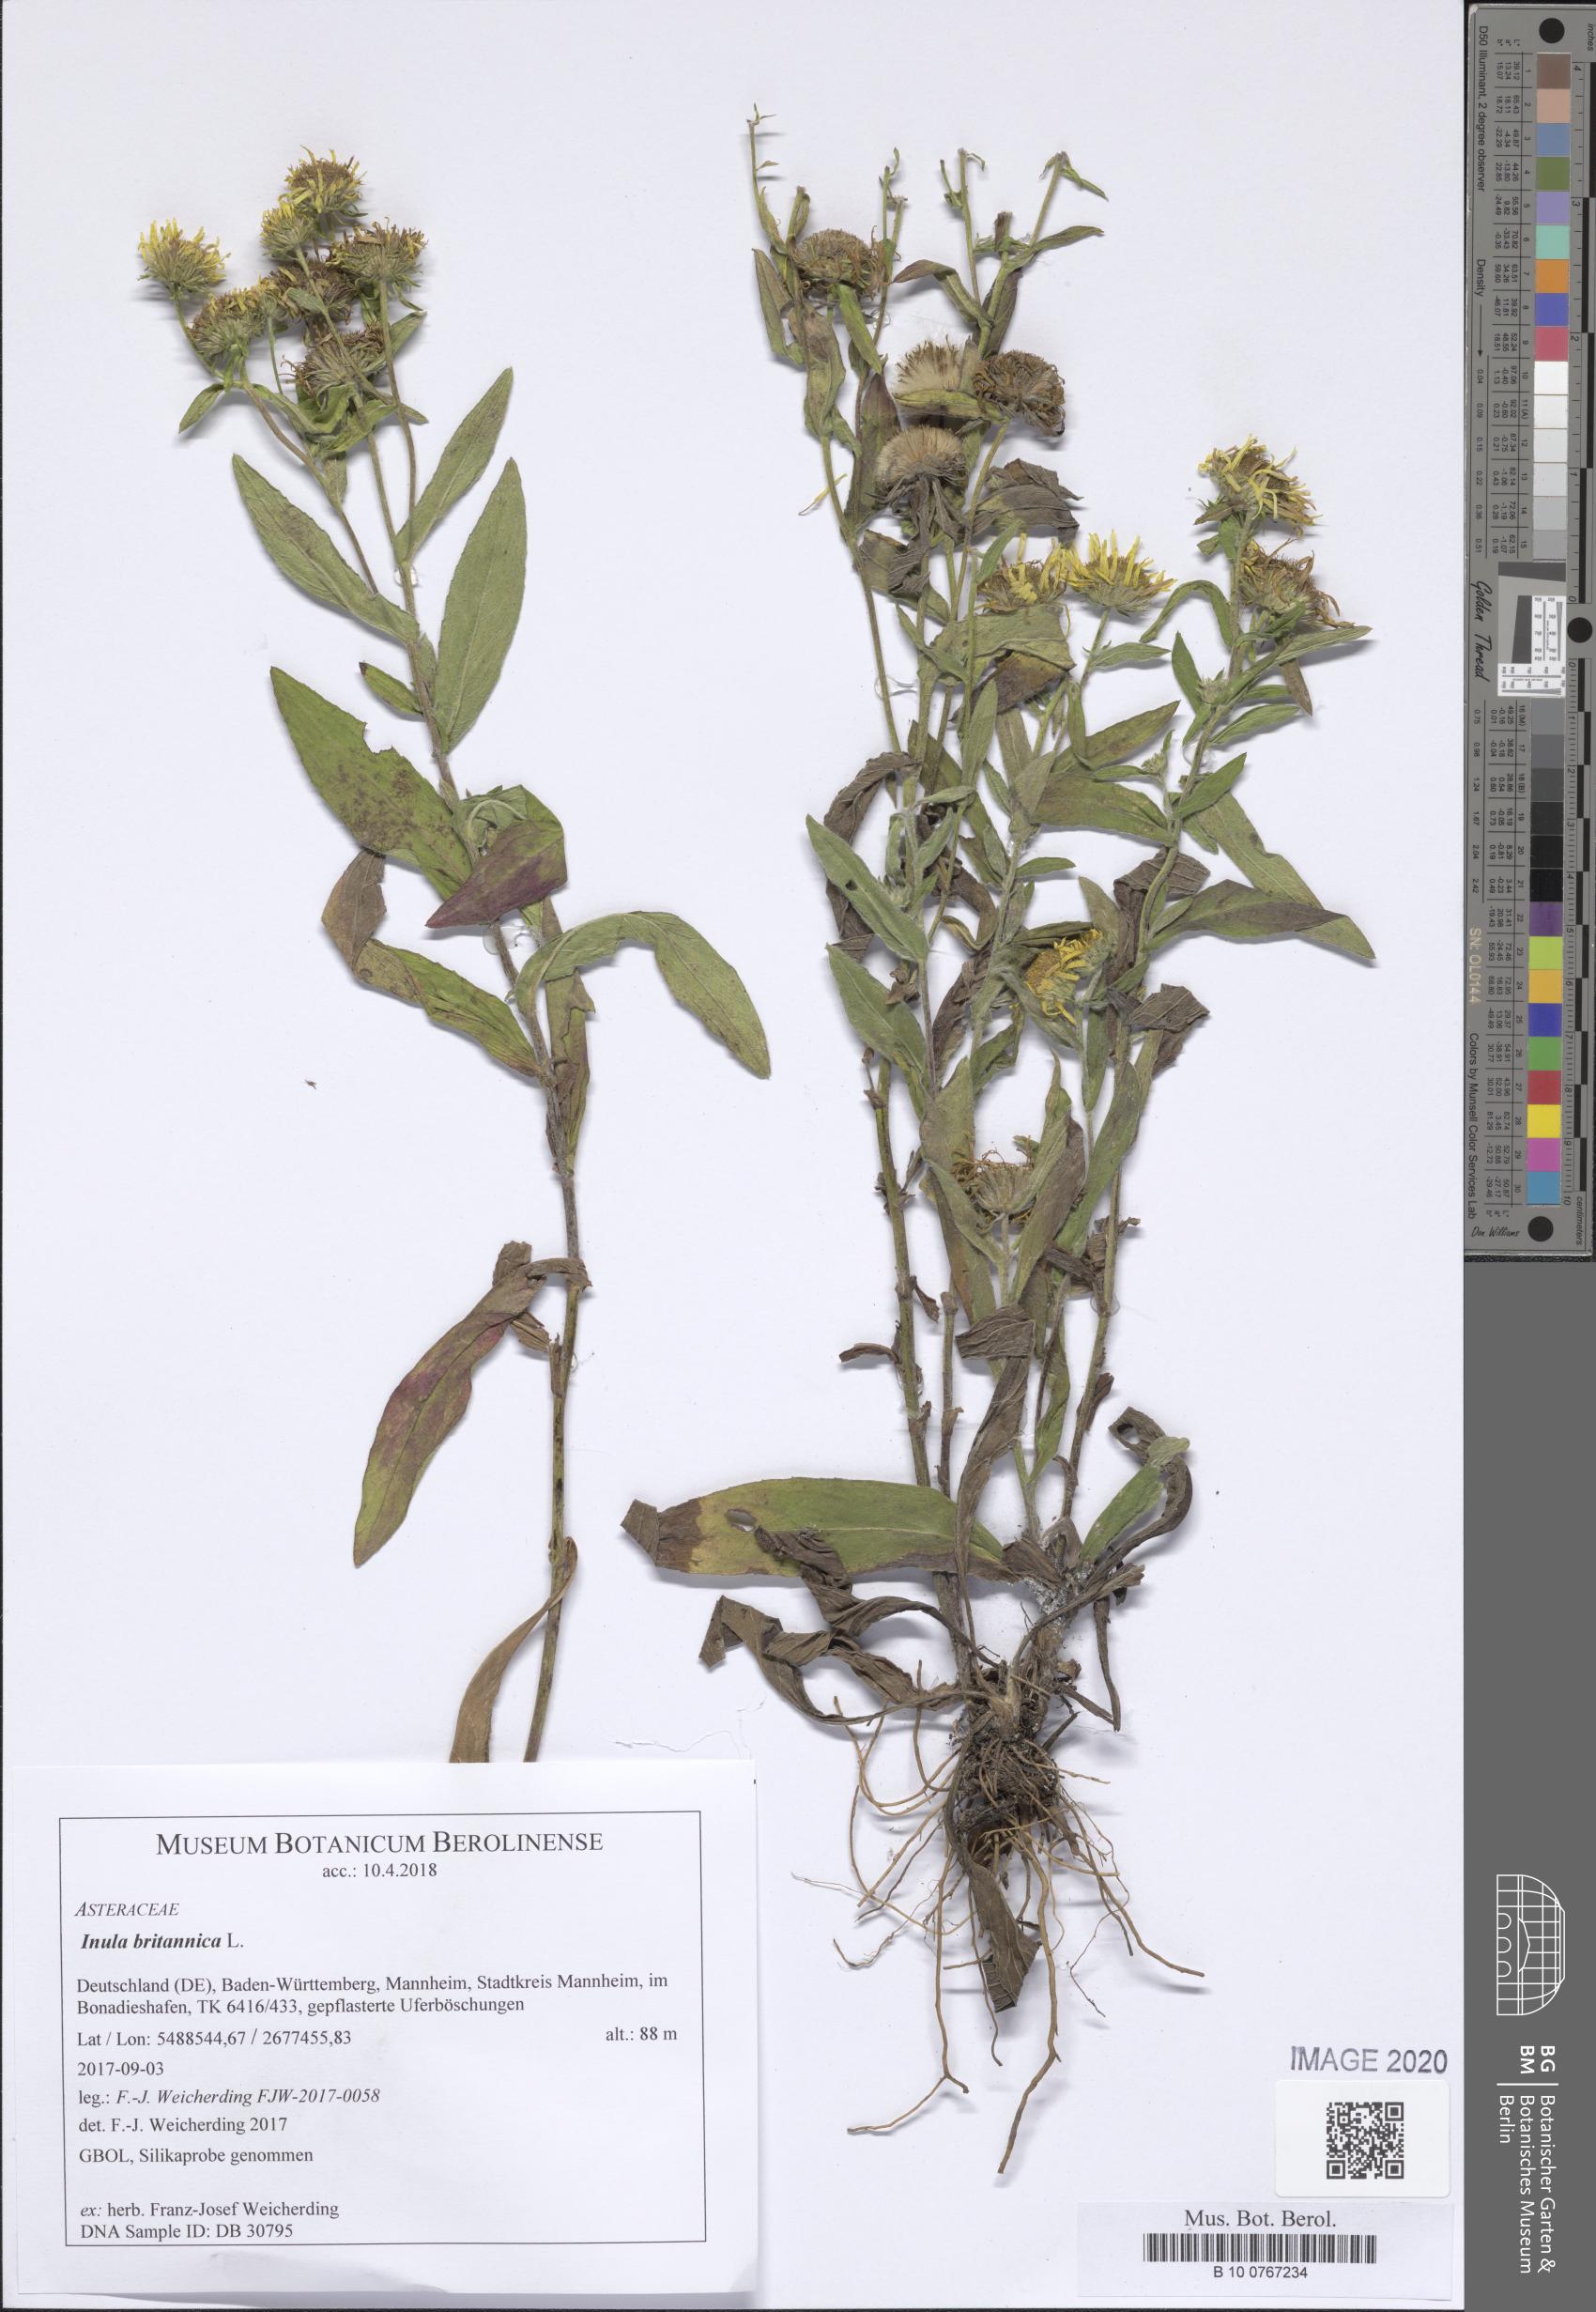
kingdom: Plantae
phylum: Tracheophyta
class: Magnoliopsida
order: Asterales
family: Asteraceae
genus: Pentanema
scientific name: Pentanema britannicum
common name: British elecampane
